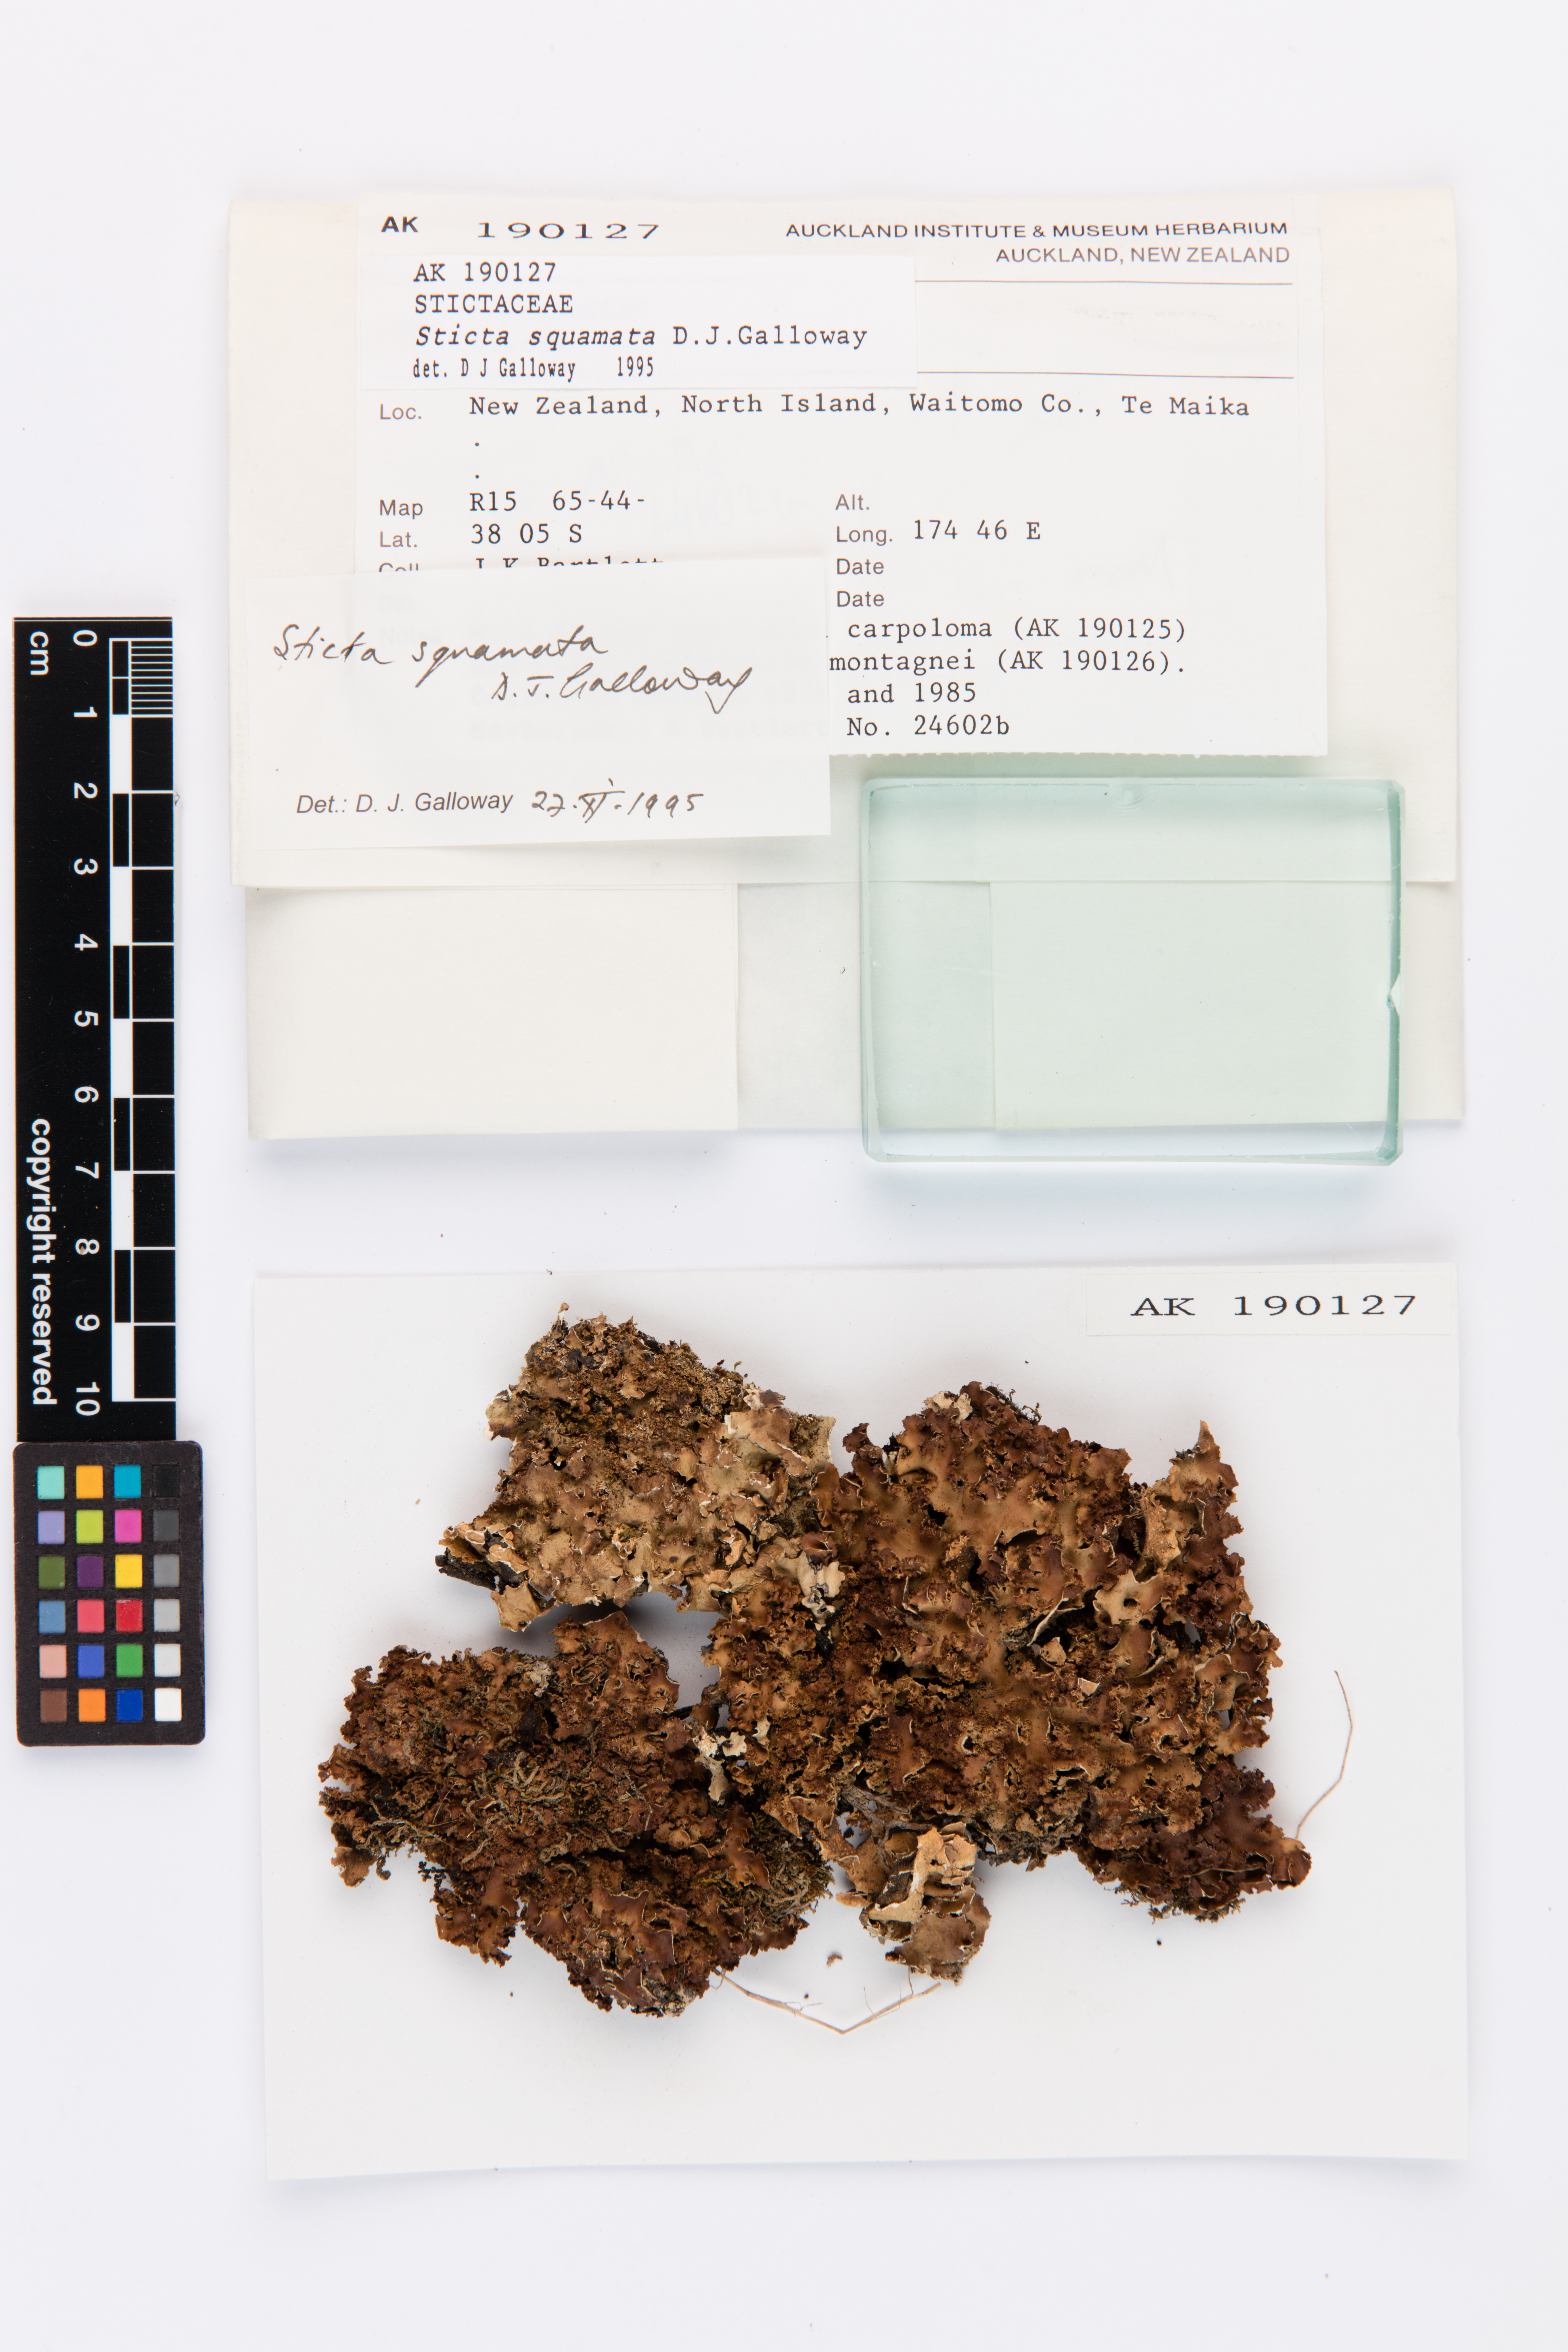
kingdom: Fungi
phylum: Ascomycota
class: Lecanoromycetes
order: Peltigerales
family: Lobariaceae
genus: Sticta
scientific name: Sticta squamata
